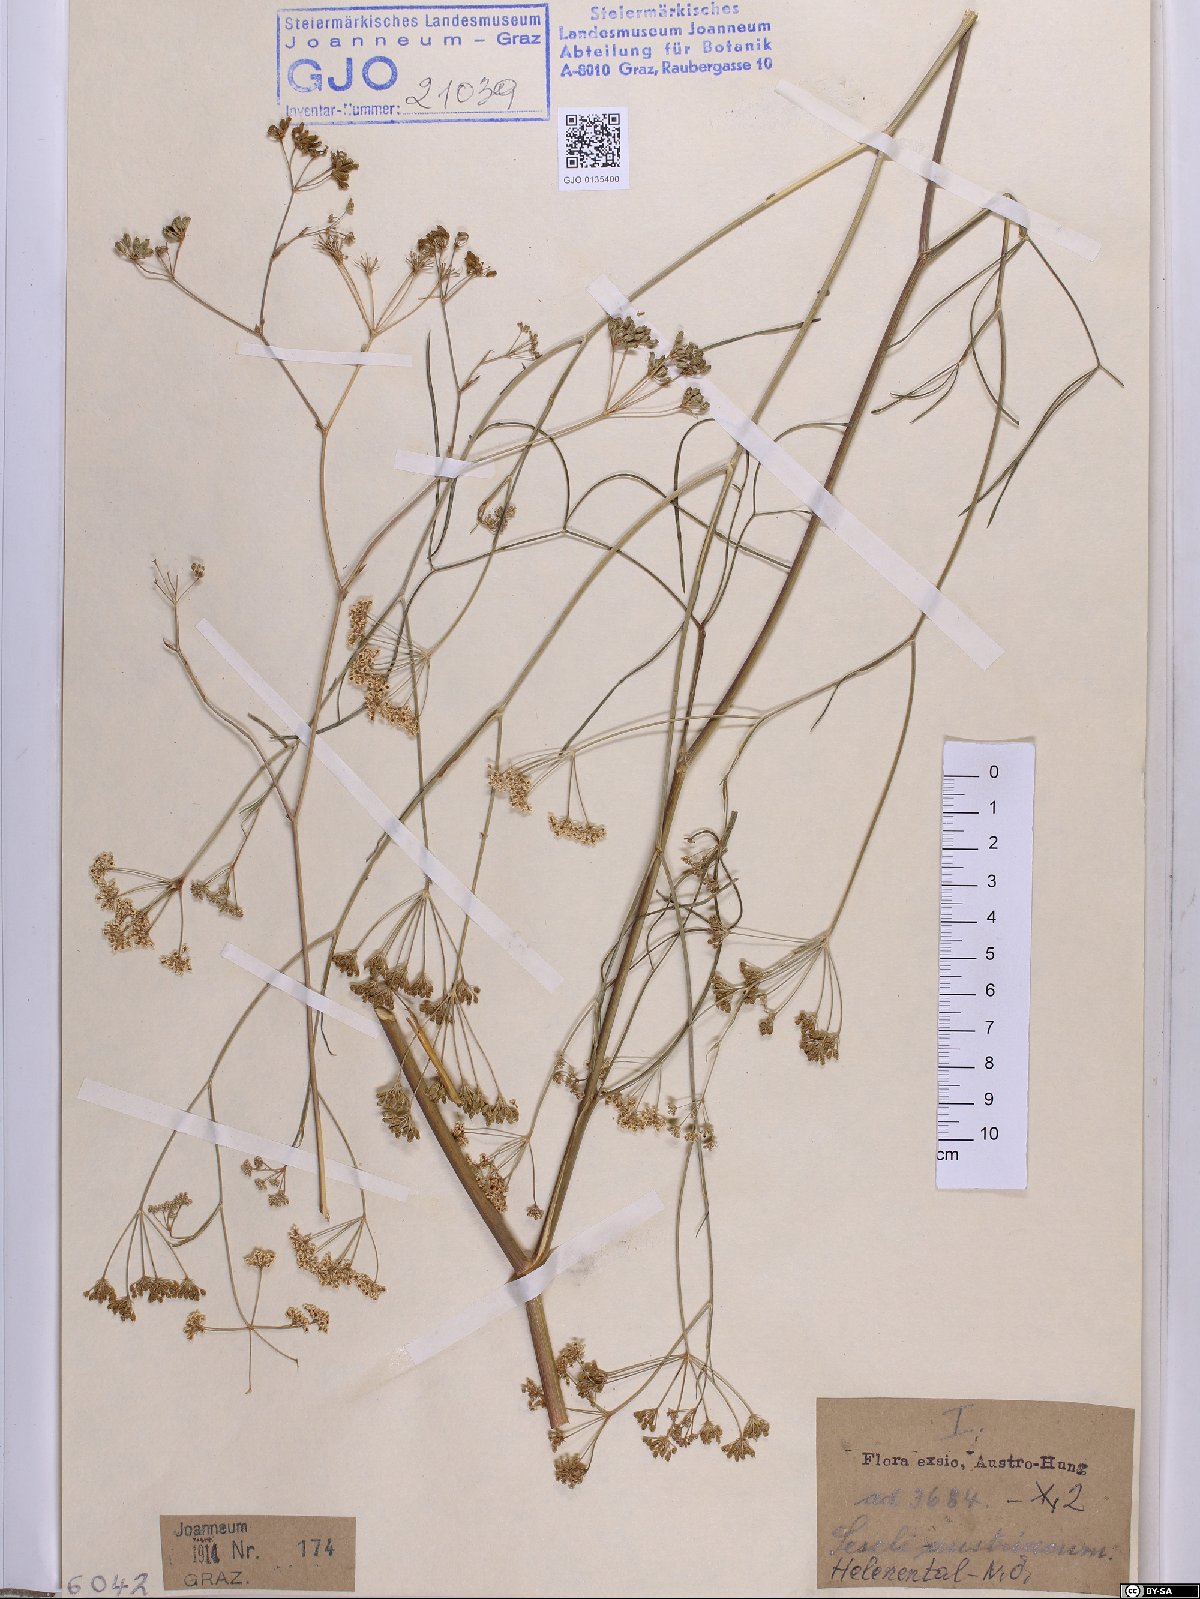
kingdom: Plantae
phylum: Tracheophyta
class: Magnoliopsida
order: Apiales
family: Apiaceae
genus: Seseli
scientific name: Seseli austriacum
